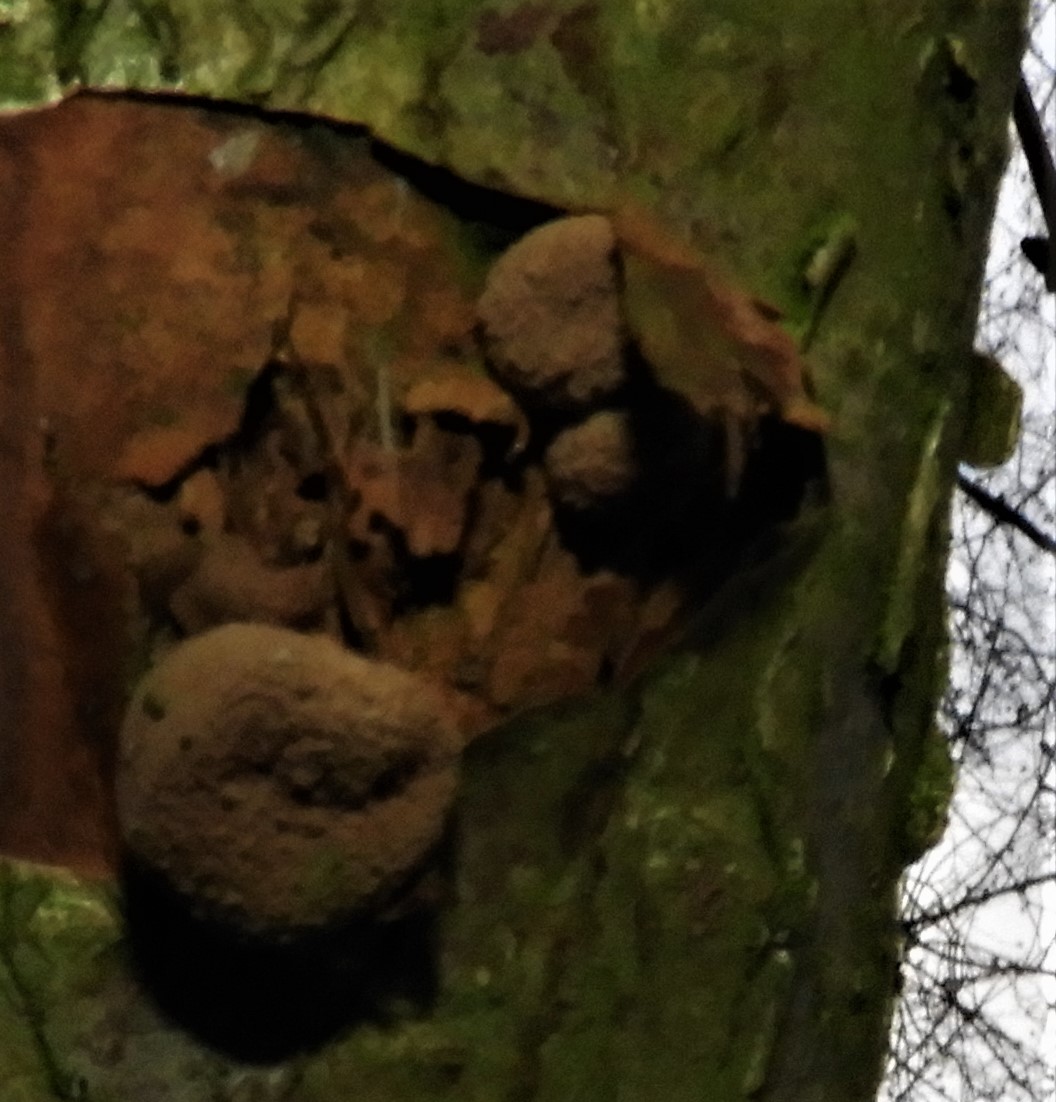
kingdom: Fungi
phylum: Ascomycota
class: Leotiomycetes
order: Helotiales
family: Cenangiaceae
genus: Encoelia
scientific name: Encoelia furfuracea
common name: hassel-læderskive
